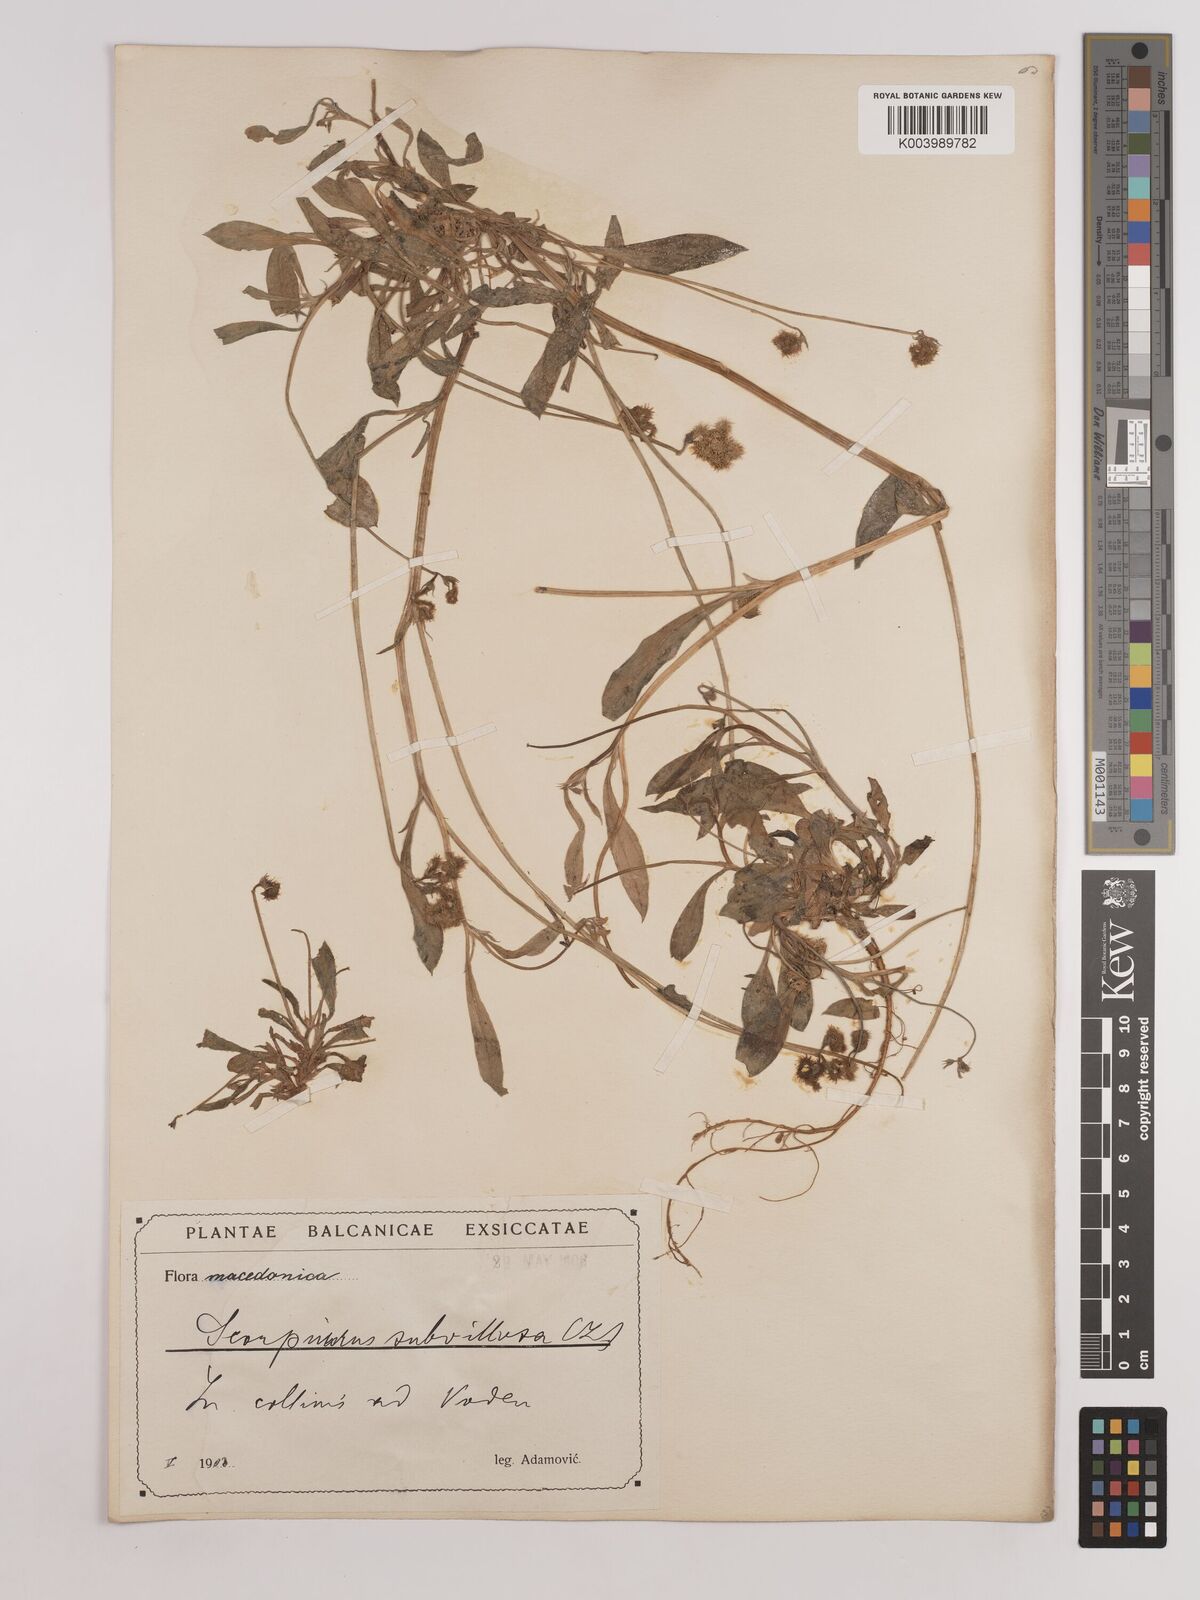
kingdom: Plantae
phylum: Tracheophyta
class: Magnoliopsida
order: Fabales
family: Fabaceae
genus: Scorpiurus
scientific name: Scorpiurus muricatus
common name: Caterpillar-plant
